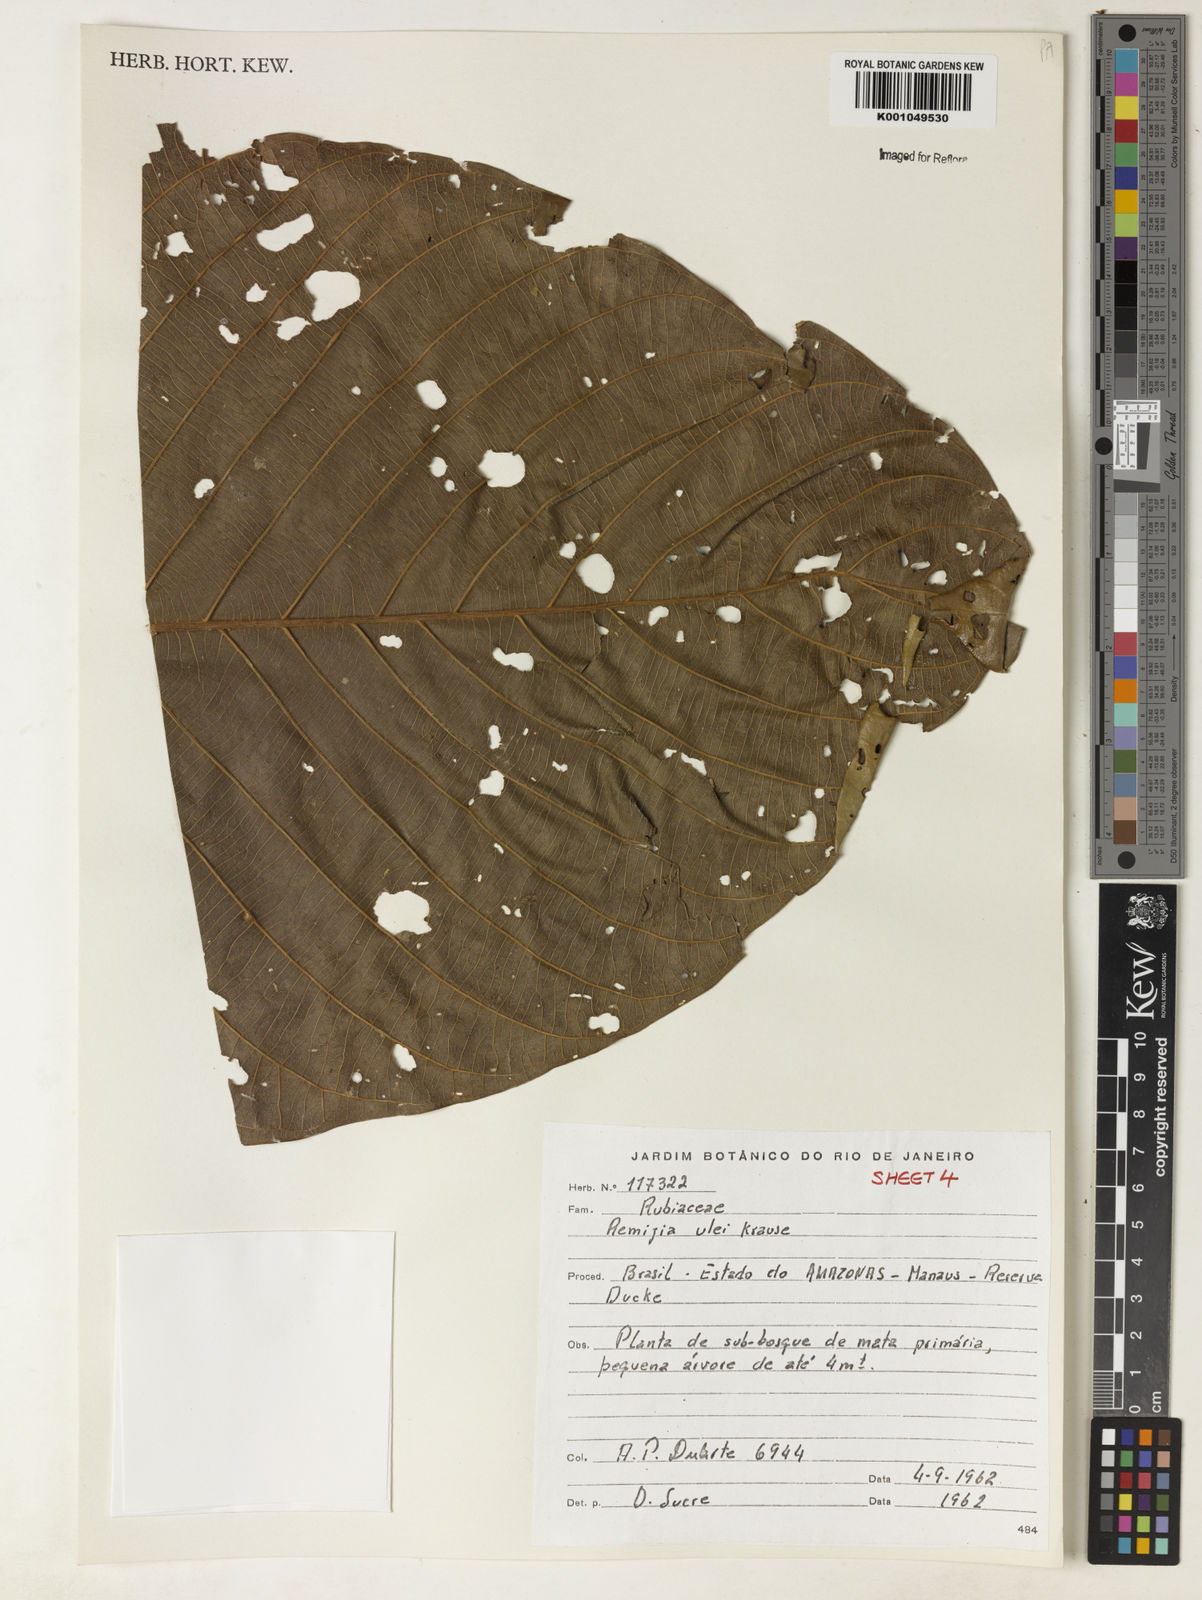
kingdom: Plantae
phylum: Tracheophyta
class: Magnoliopsida
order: Gentianales
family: Rubiaceae
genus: Remijia
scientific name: Remijia ulei
